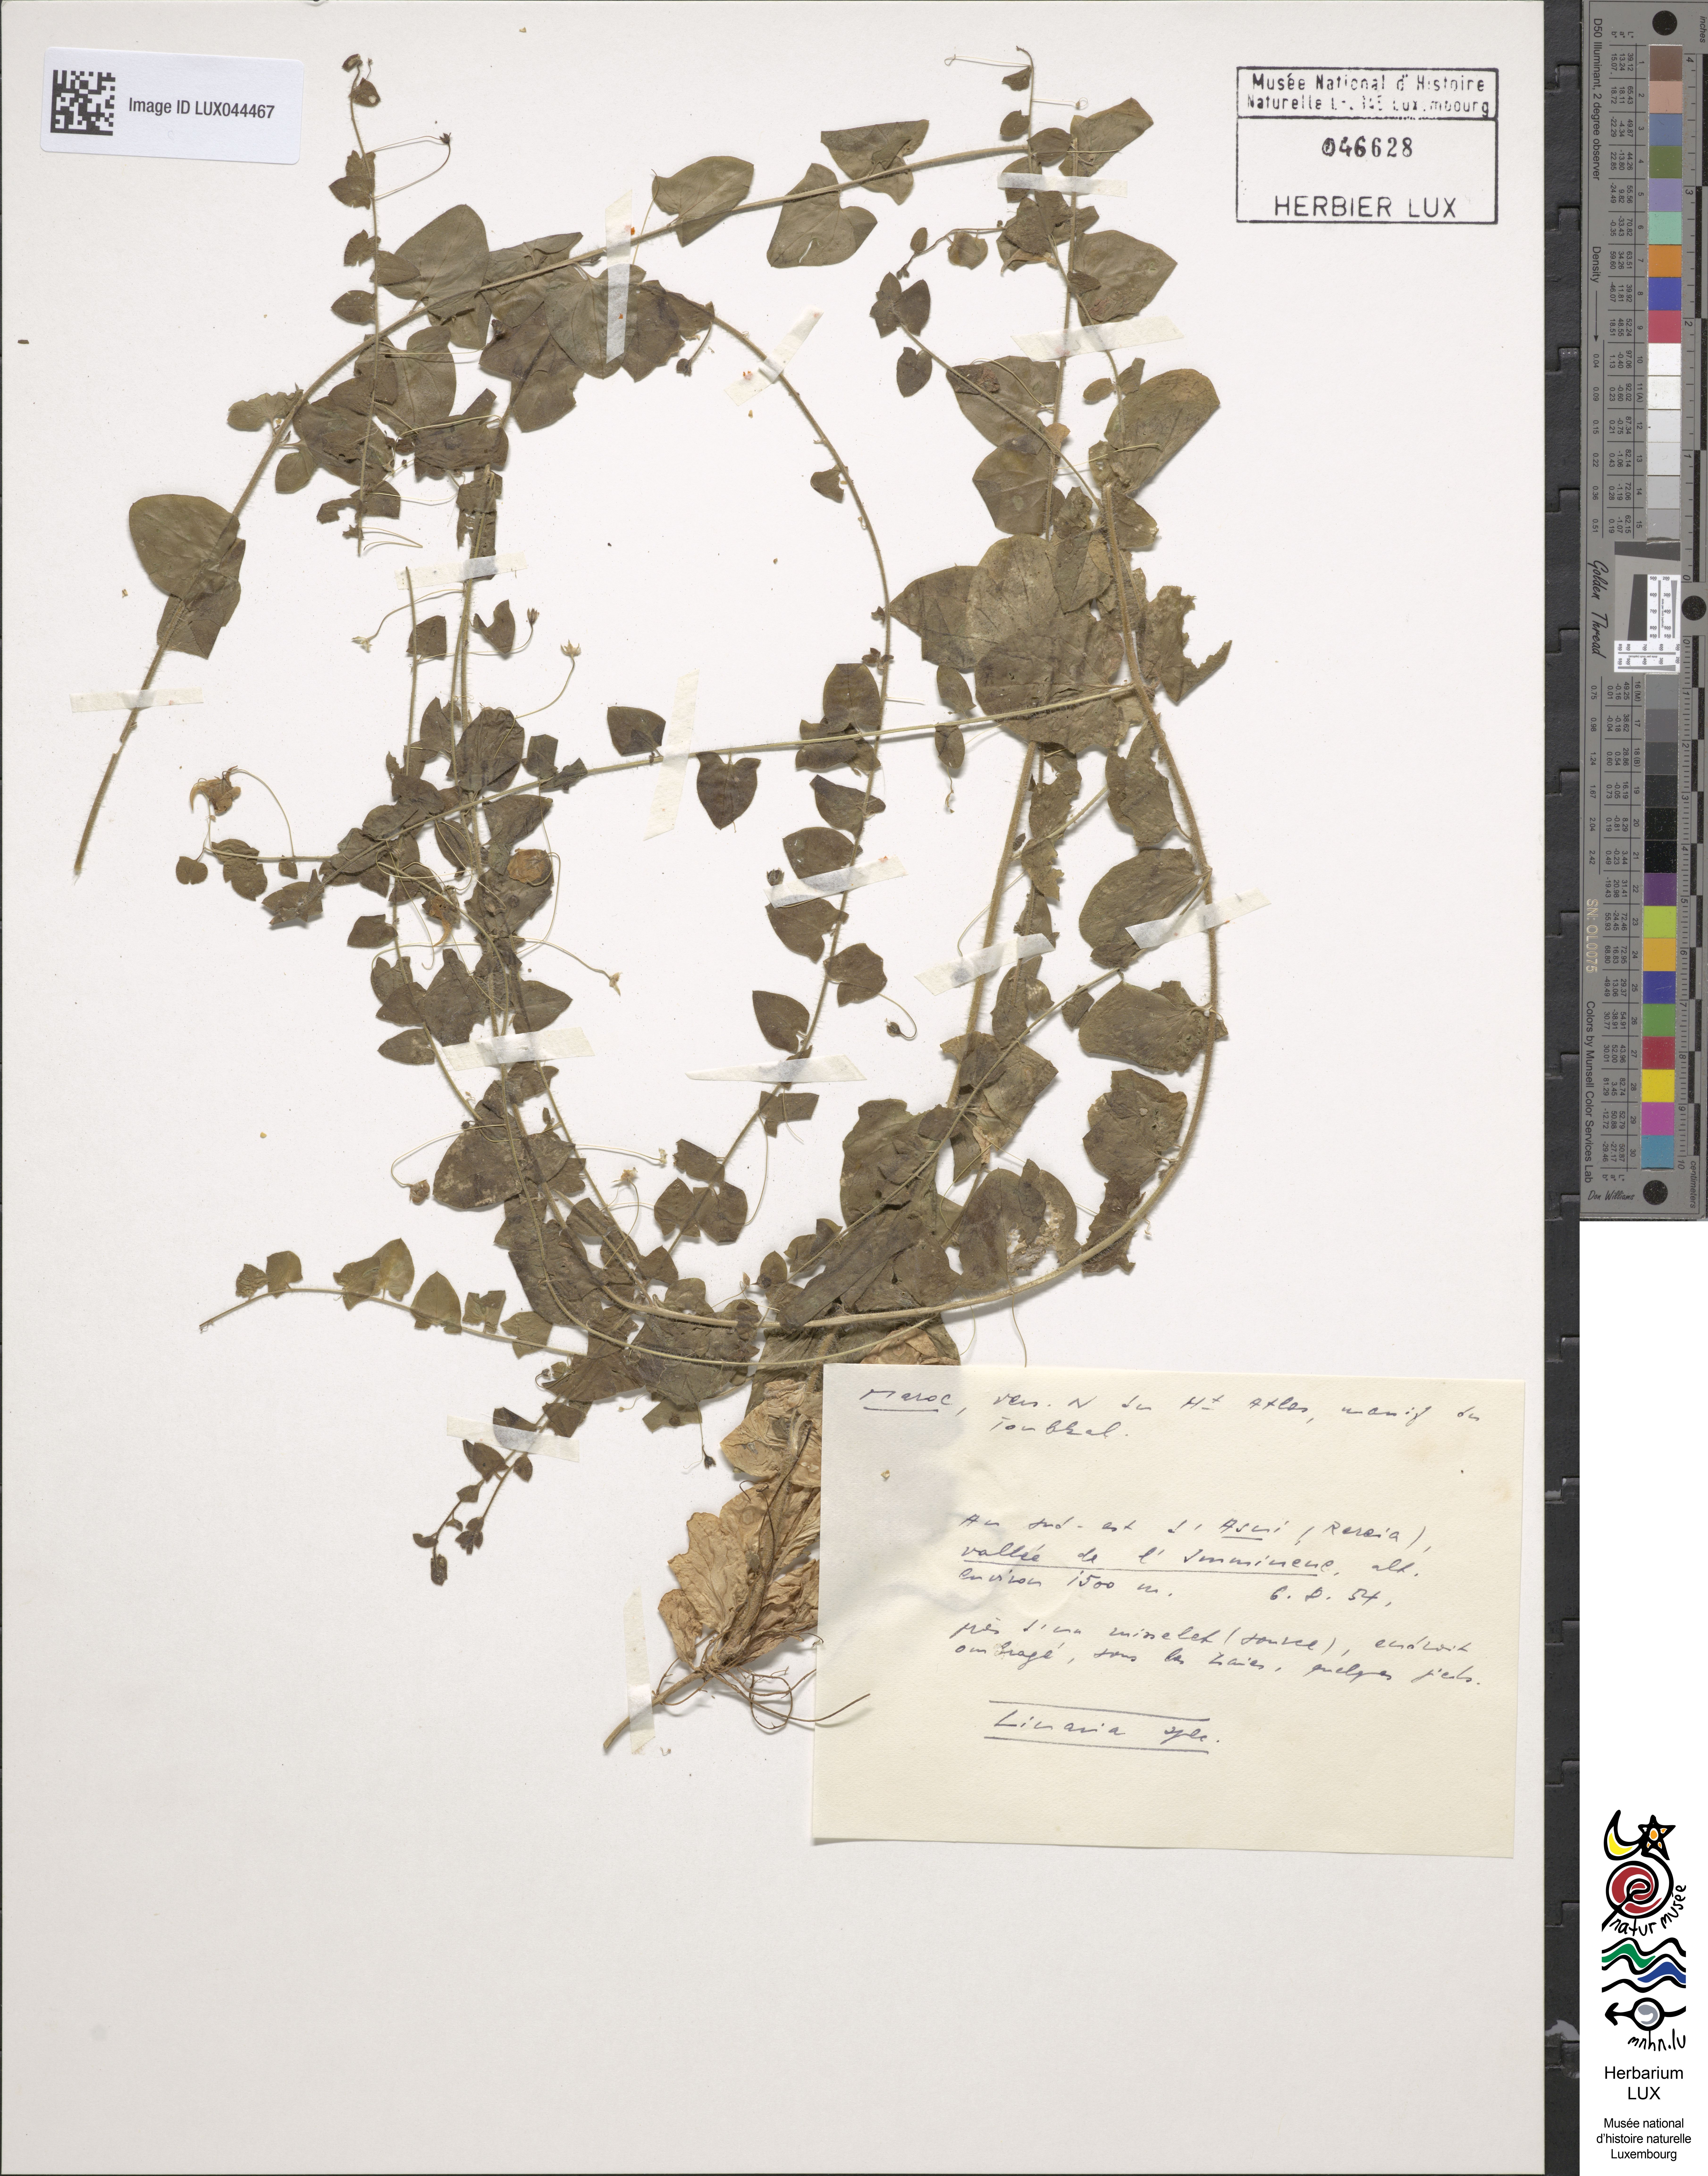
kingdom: Plantae
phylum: Tracheophyta
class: Magnoliopsida
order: Lamiales
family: Plantaginaceae
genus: Linaria
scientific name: Linaria
